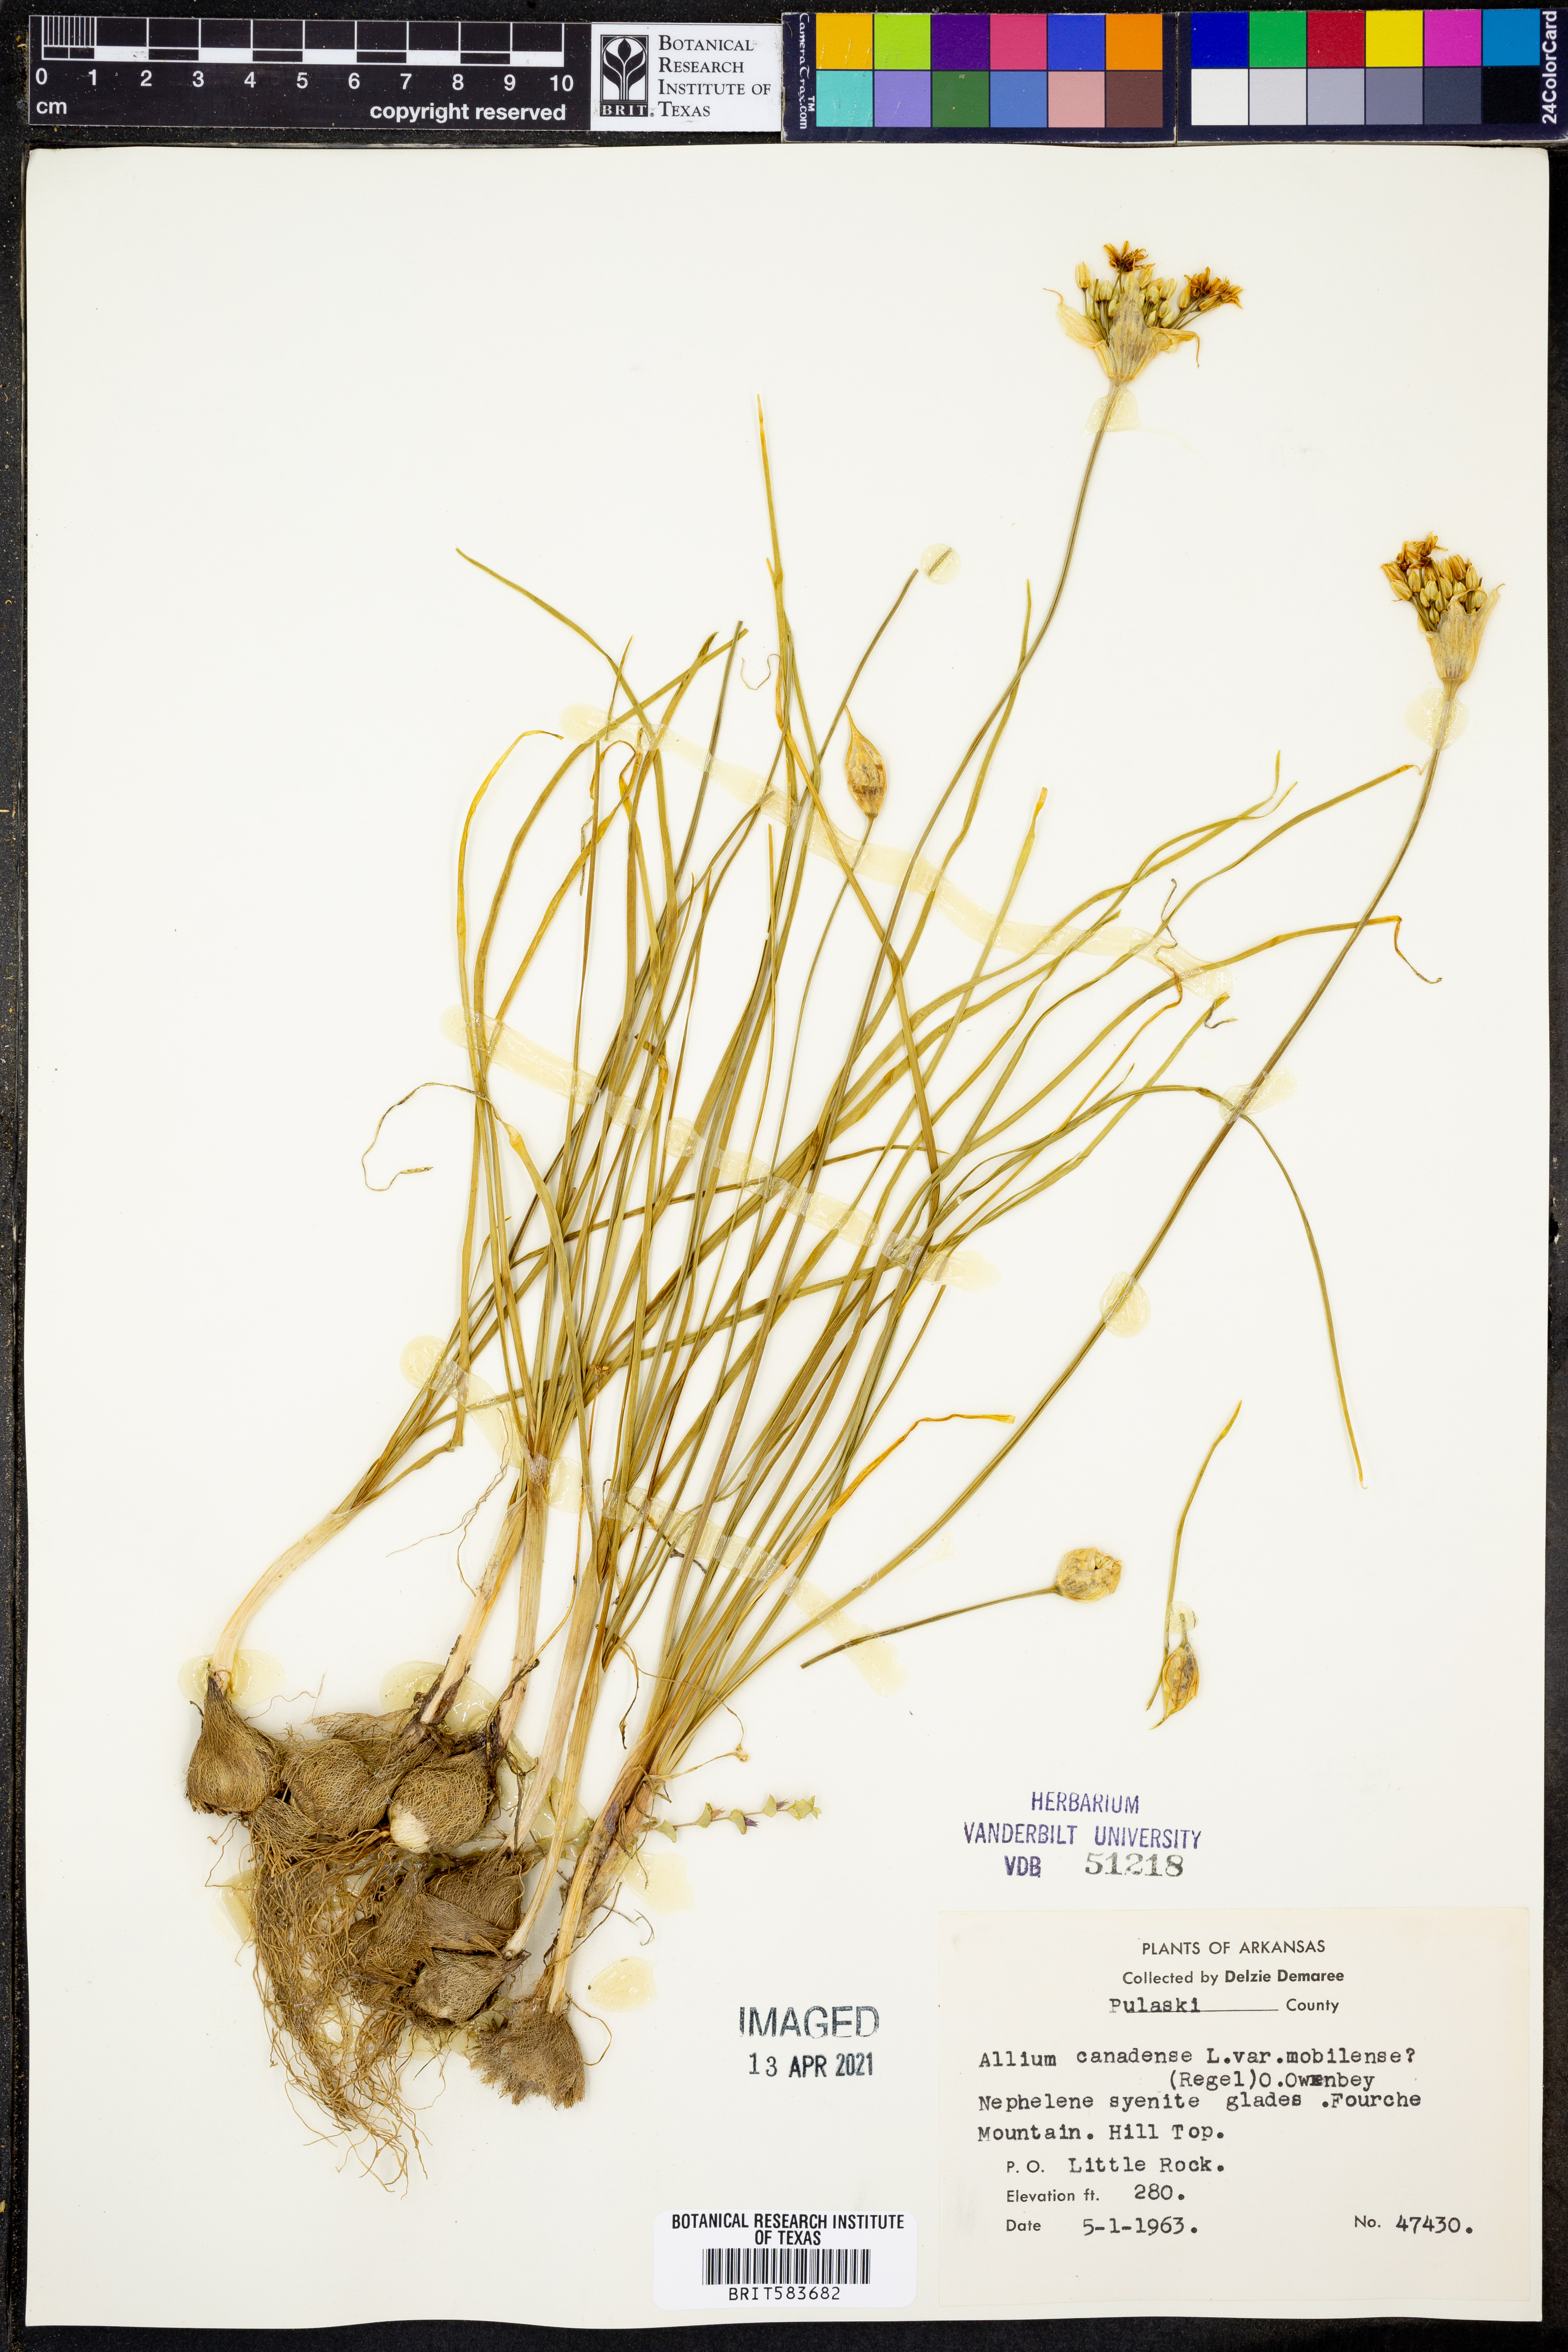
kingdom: Plantae
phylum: Tracheophyta
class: Liliopsida
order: Asparagales
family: Amaryllidaceae
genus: Allium
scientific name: Allium canadense
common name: Meadow garlic
